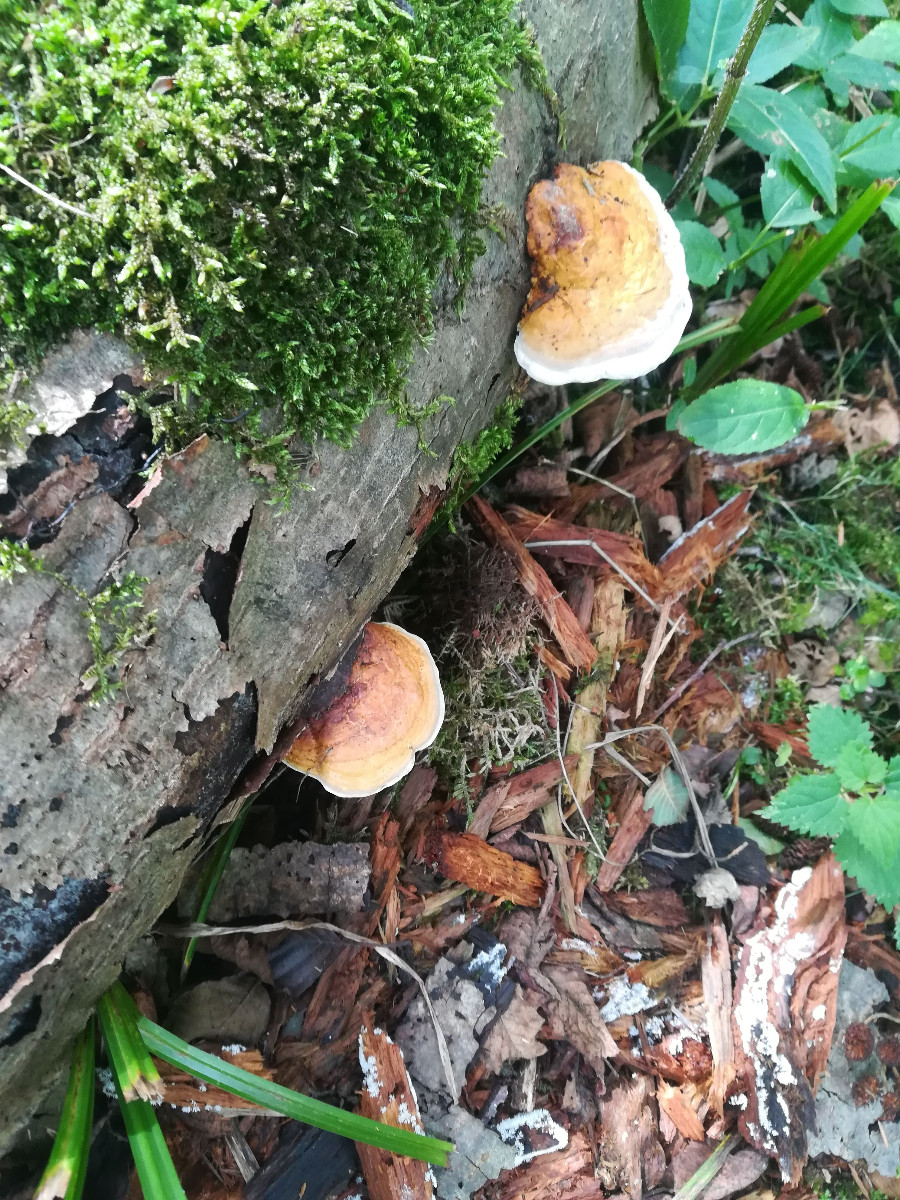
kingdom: Fungi
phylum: Basidiomycota
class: Agaricomycetes
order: Polyporales
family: Fomitopsidaceae
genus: Fomitopsis
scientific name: Fomitopsis pinicola
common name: randbæltet hovporesvamp
